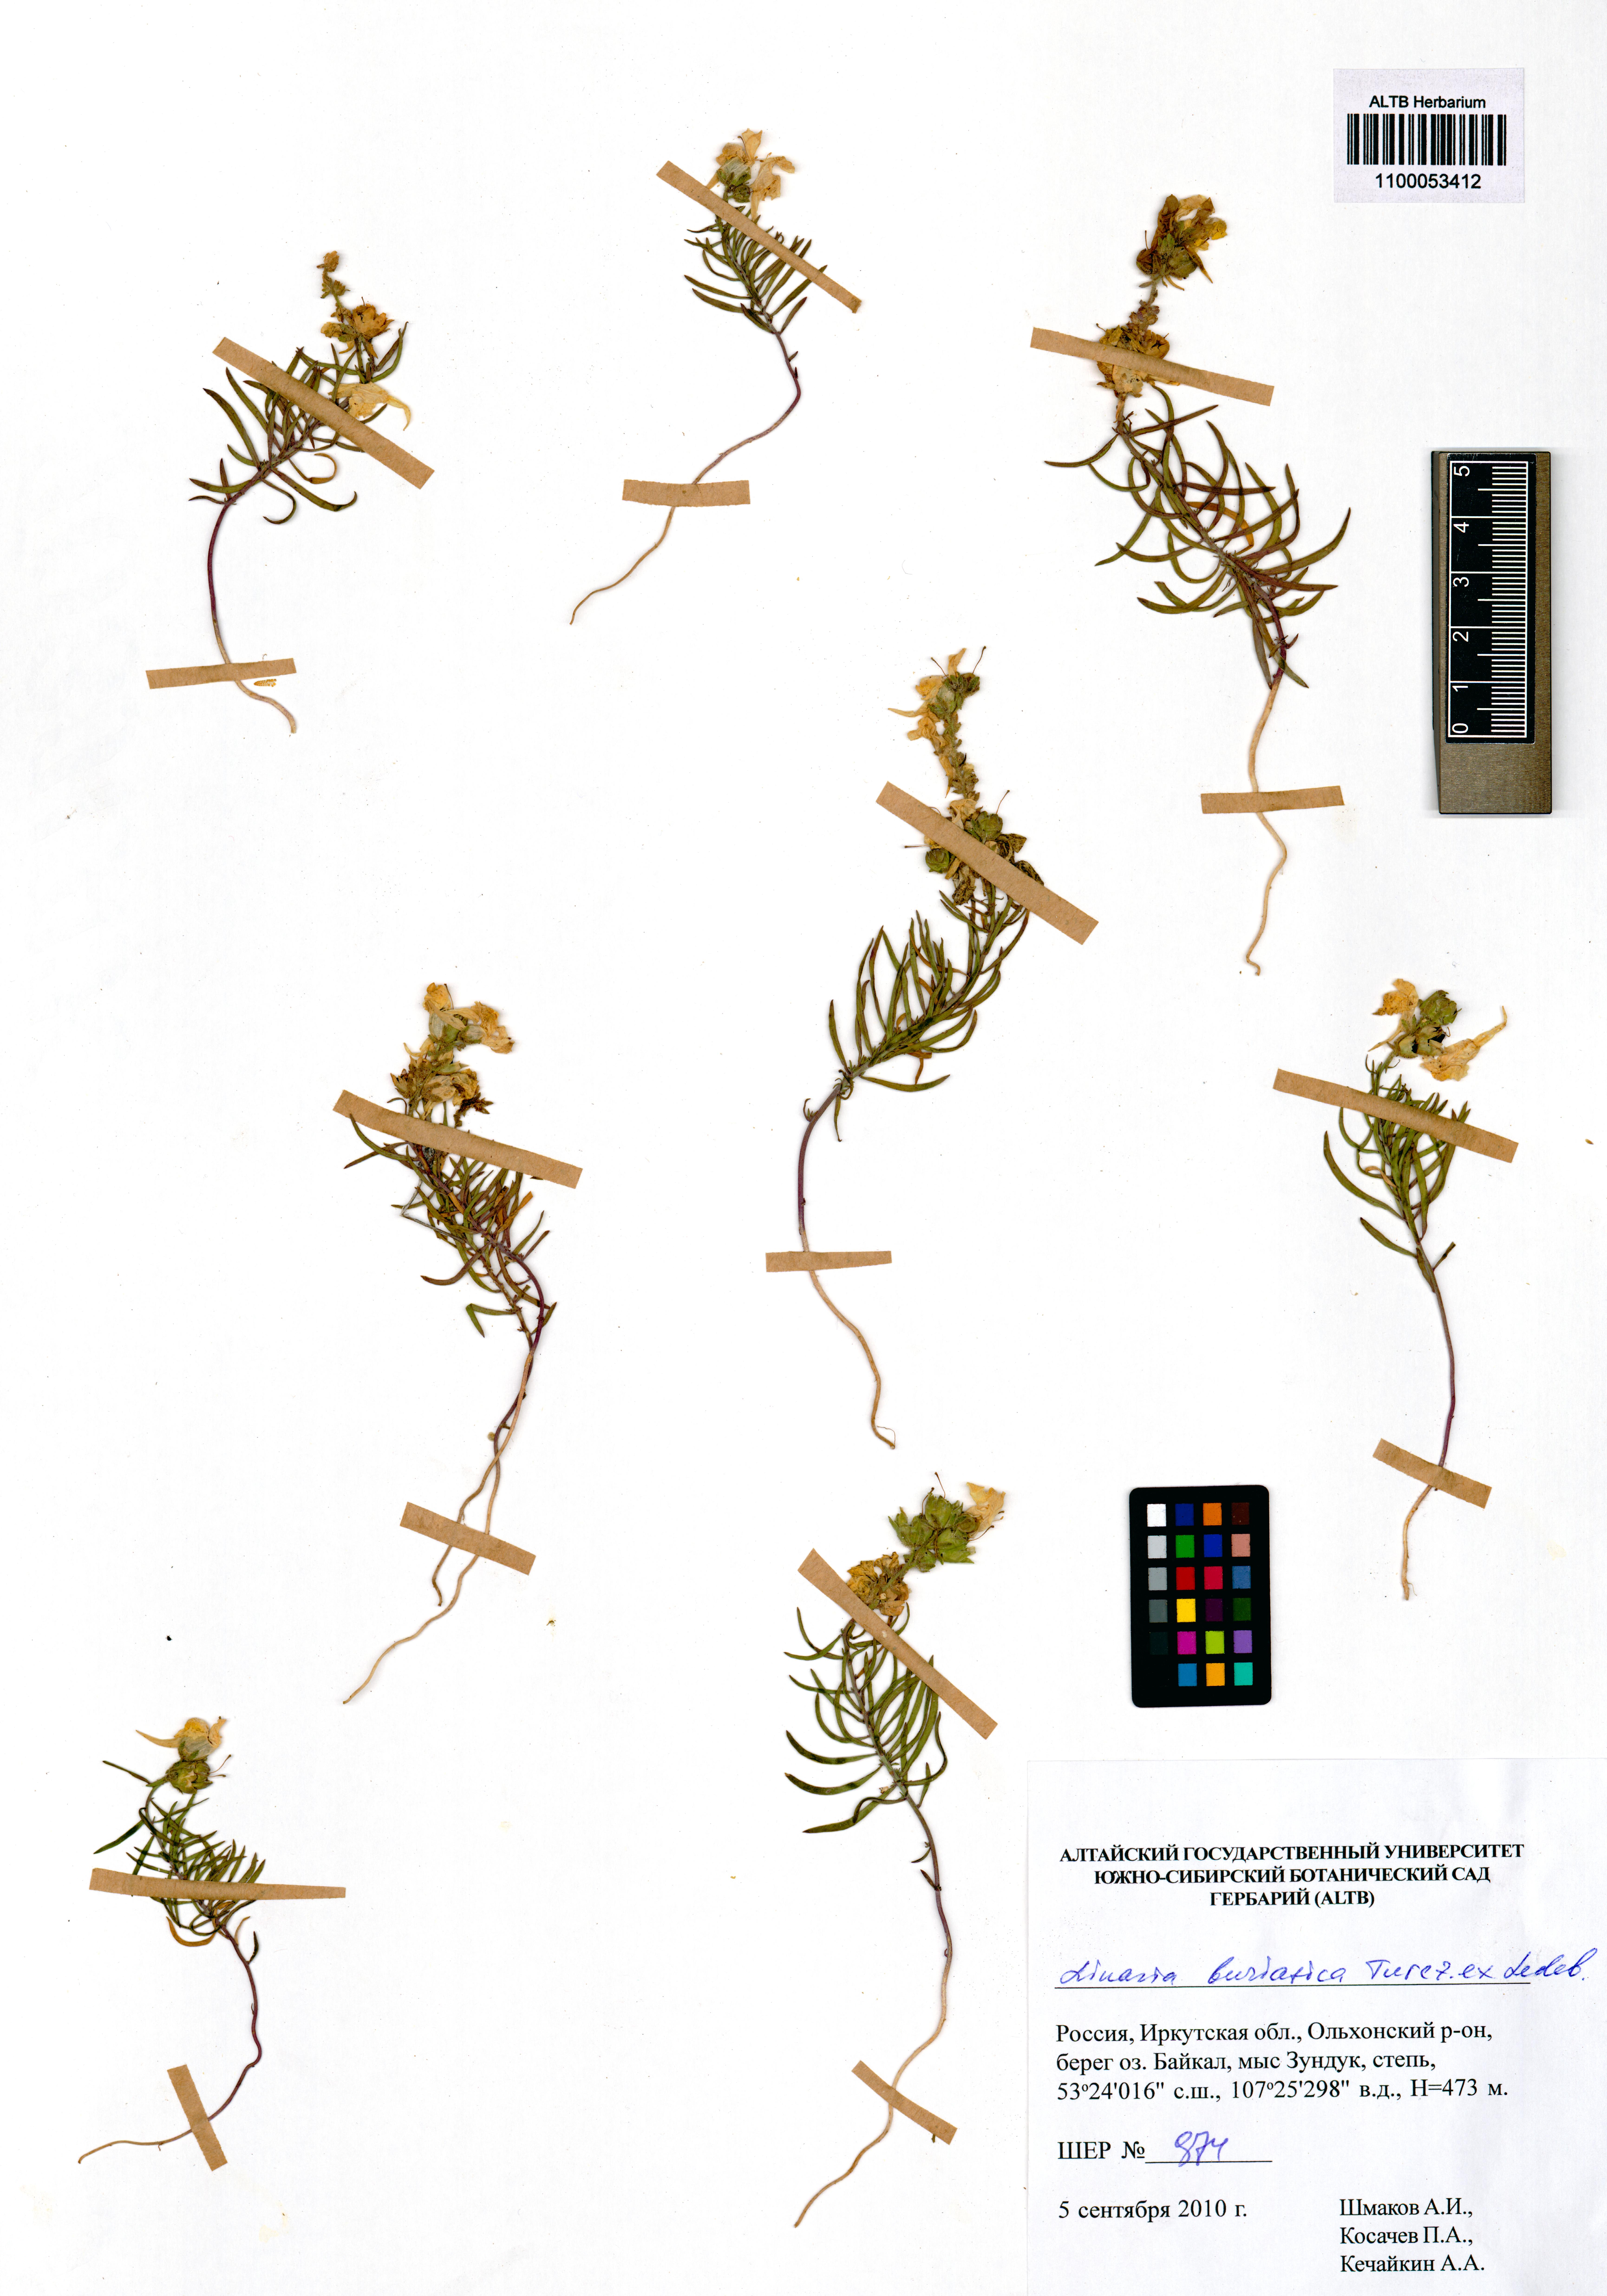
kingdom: Plantae
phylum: Tracheophyta
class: Magnoliopsida
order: Lamiales
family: Plantaginaceae
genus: Linaria
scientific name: Linaria buriatica
